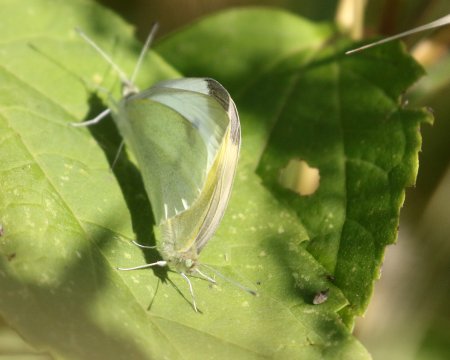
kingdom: Animalia
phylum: Arthropoda
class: Insecta
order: Lepidoptera
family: Pieridae
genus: Pieris
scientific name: Pieris rapae
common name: Cabbage White
